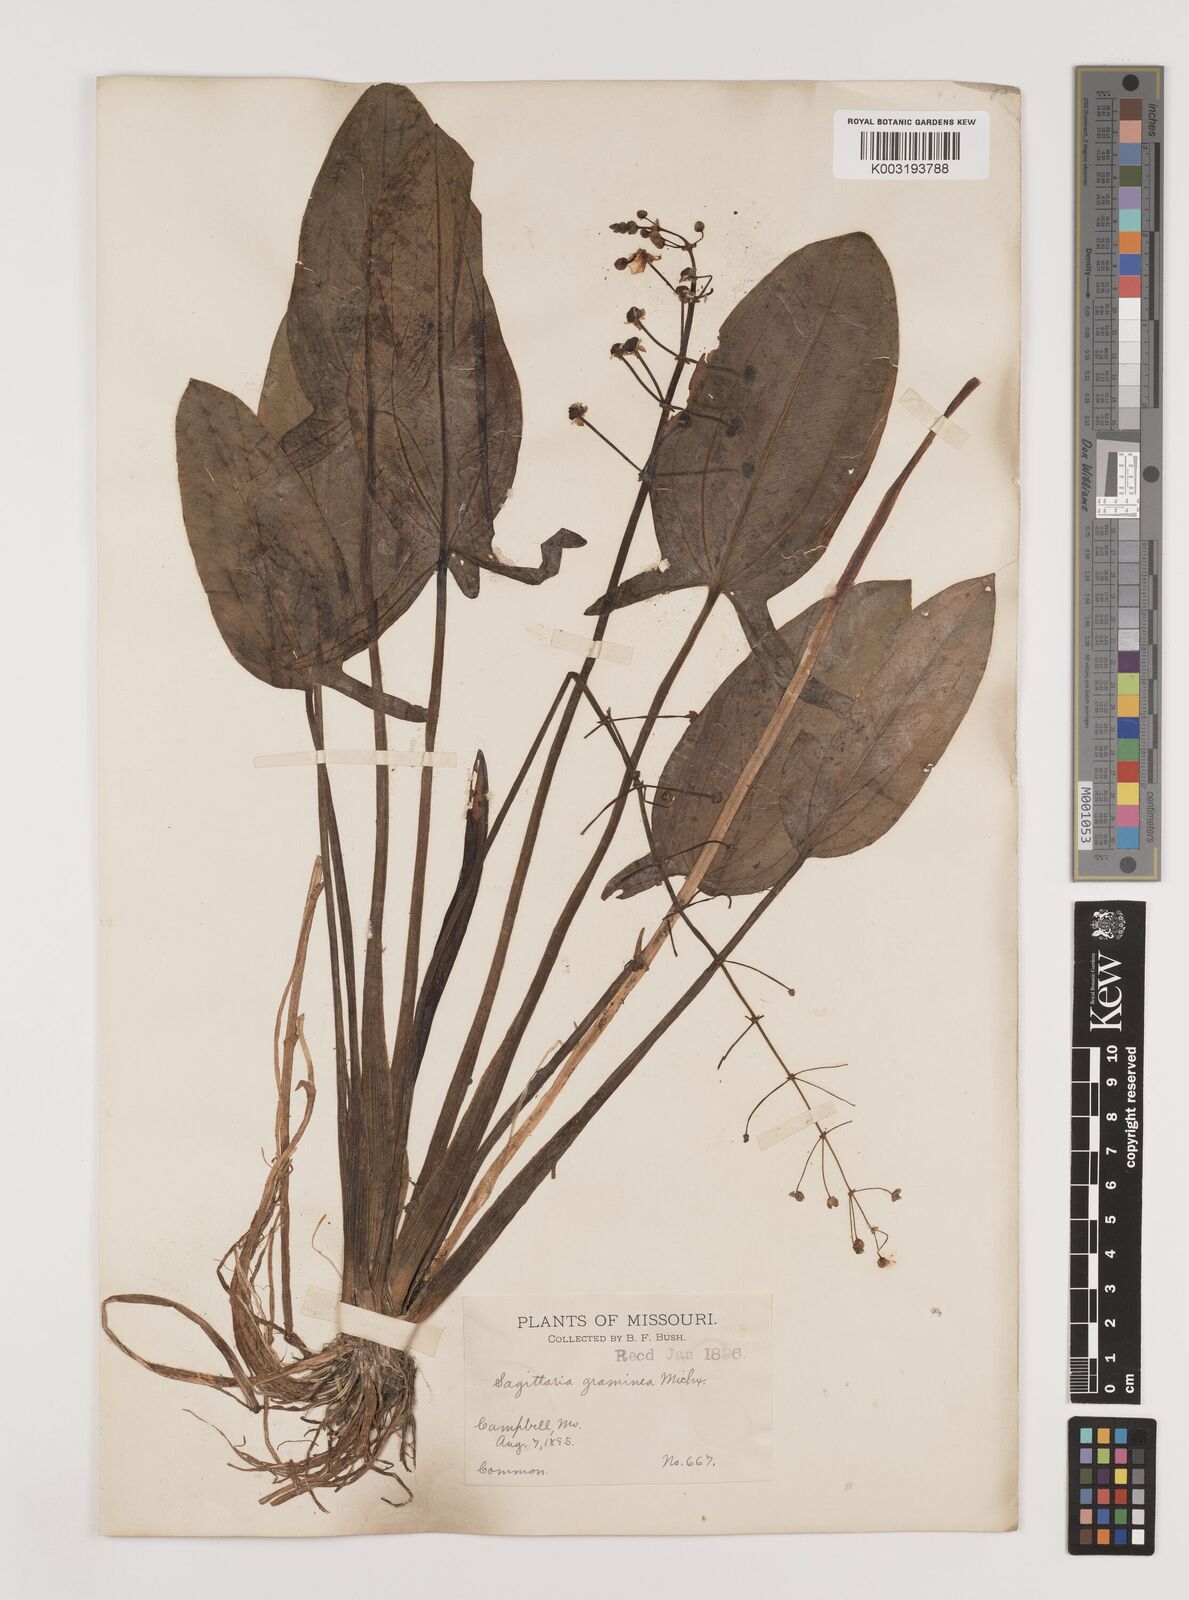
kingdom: Plantae
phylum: Tracheophyta
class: Liliopsida
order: Alismatales
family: Alismataceae
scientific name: Alismataceae
